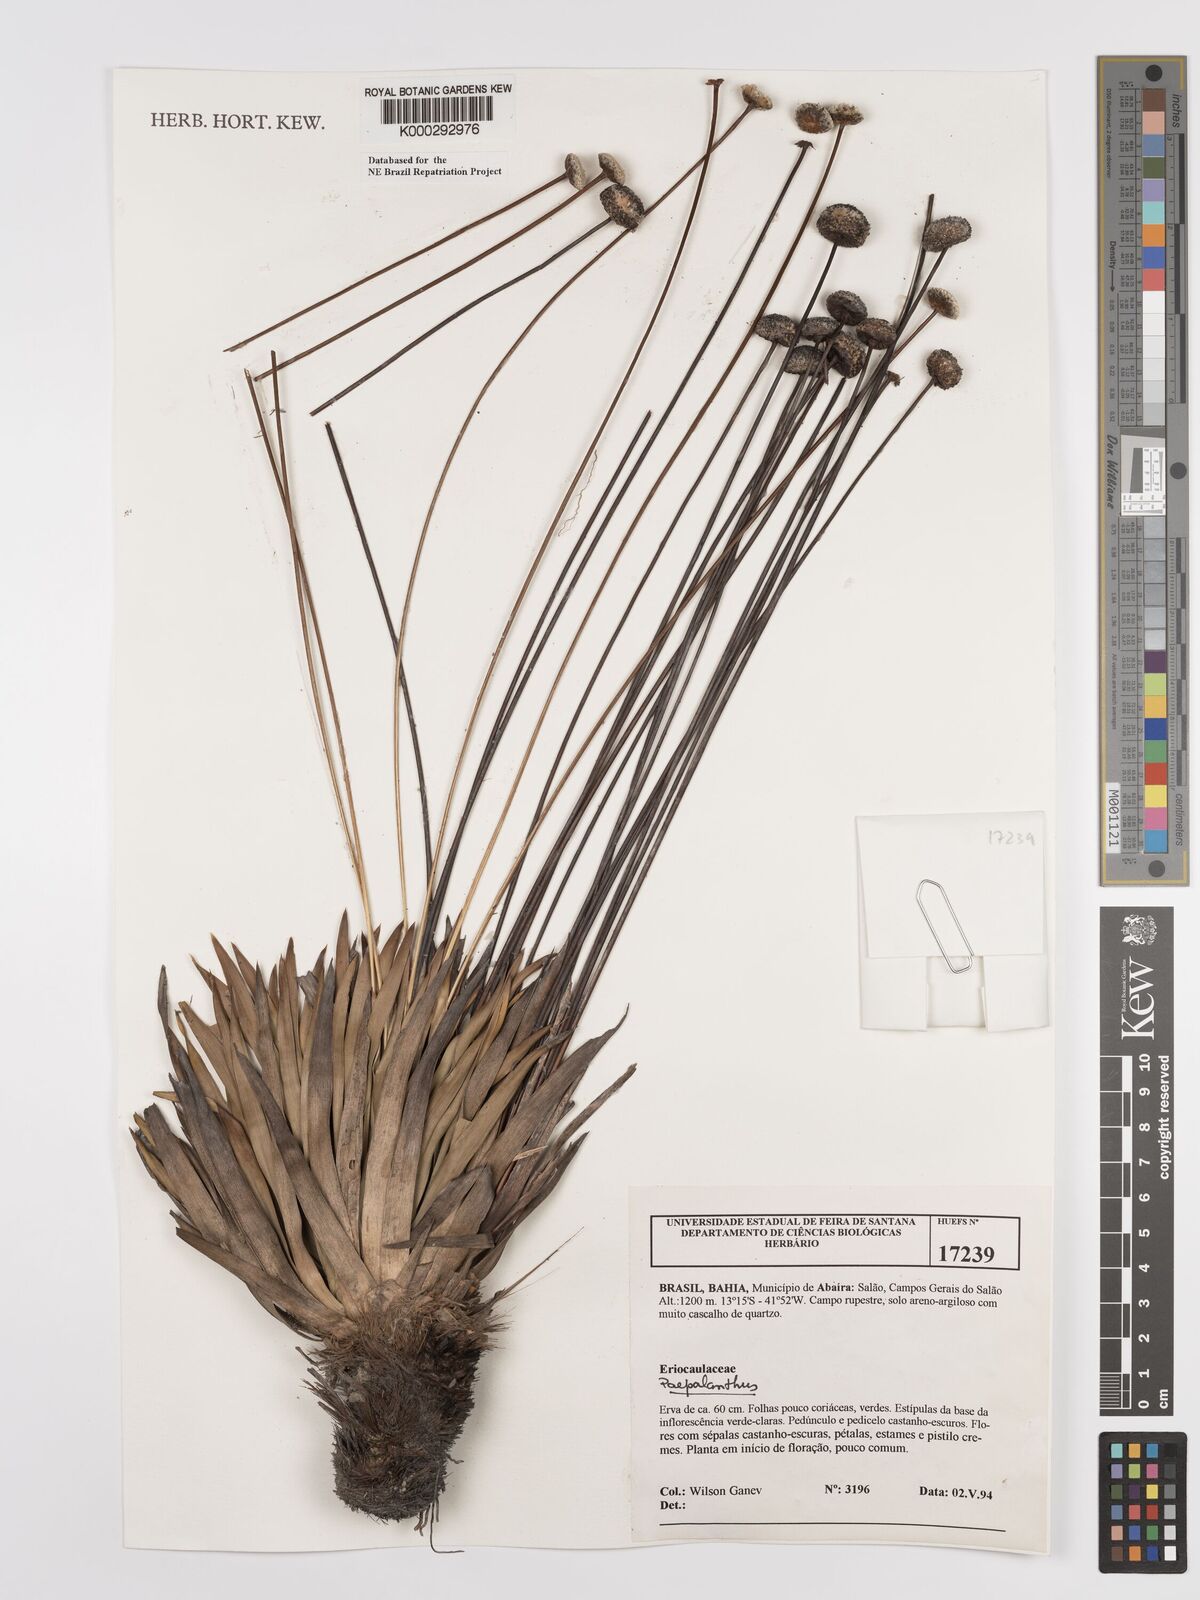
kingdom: Plantae
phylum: Tracheophyta
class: Liliopsida
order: Poales
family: Eriocaulaceae
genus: Paepalanthus
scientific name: Paepalanthus
